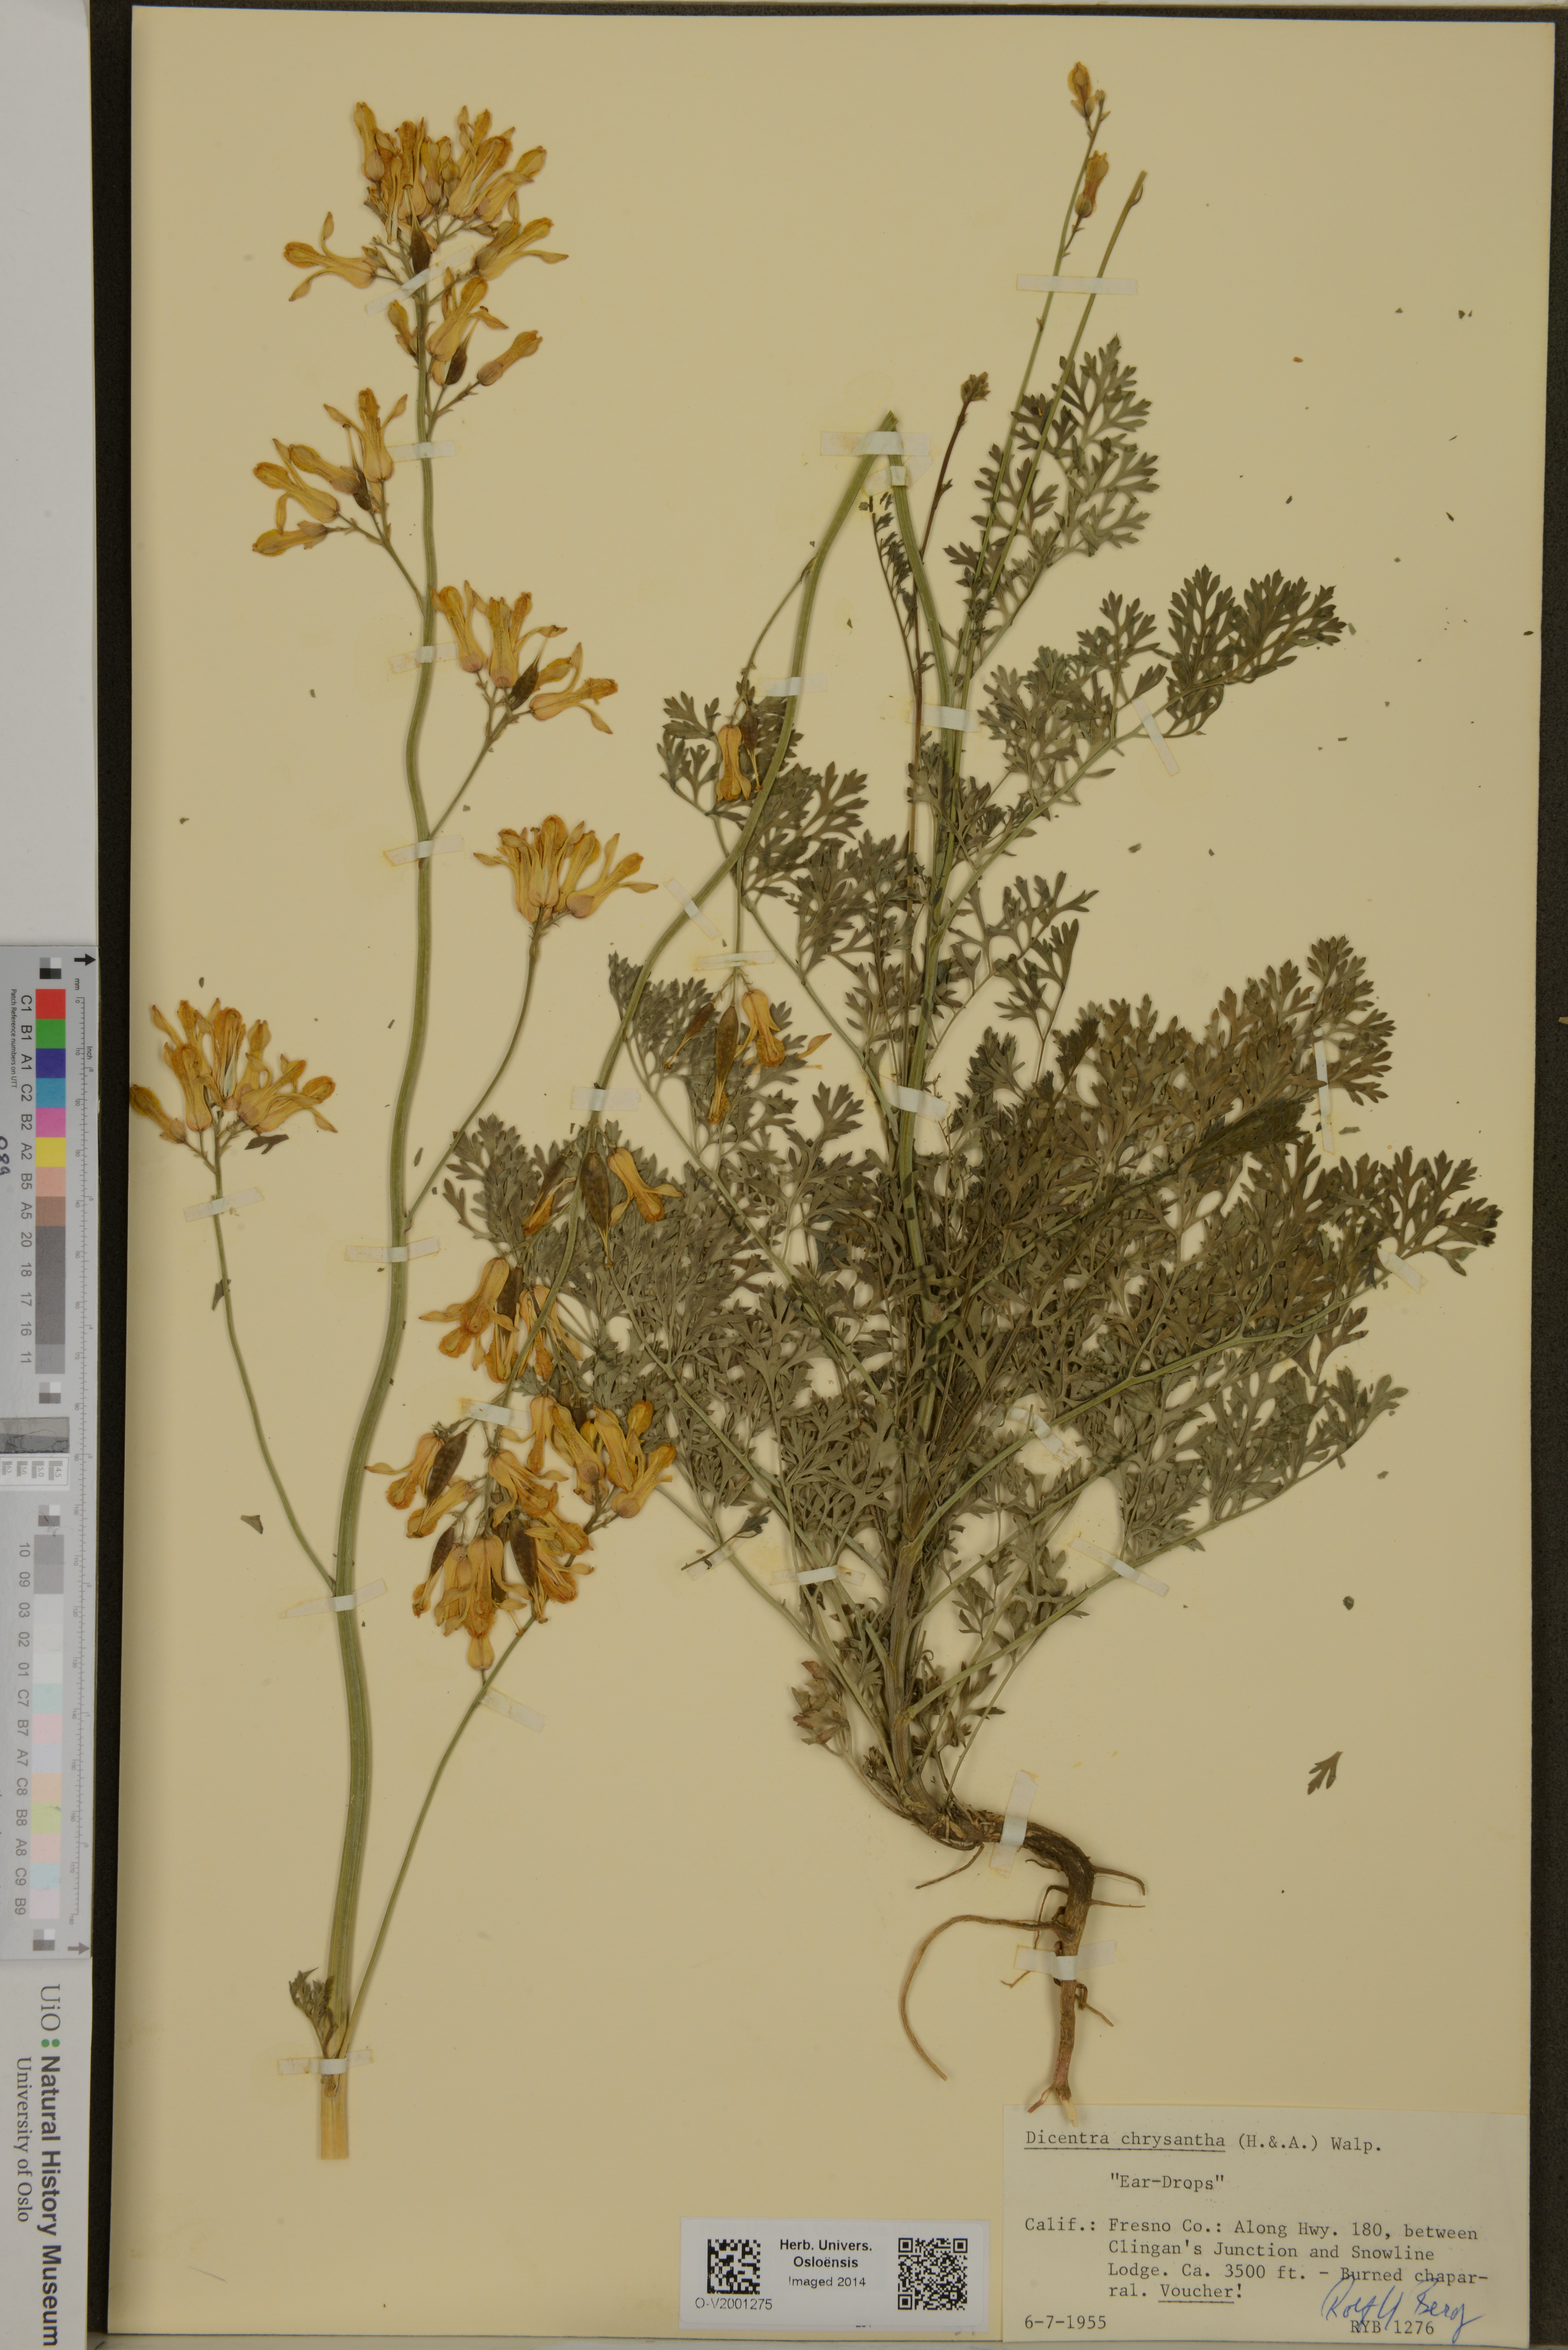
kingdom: Plantae
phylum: Tracheophyta
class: Magnoliopsida
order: Ranunculales
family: Papaveraceae
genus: Ehrendorferia
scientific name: Ehrendorferia chrysantha
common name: Golden eardrops
